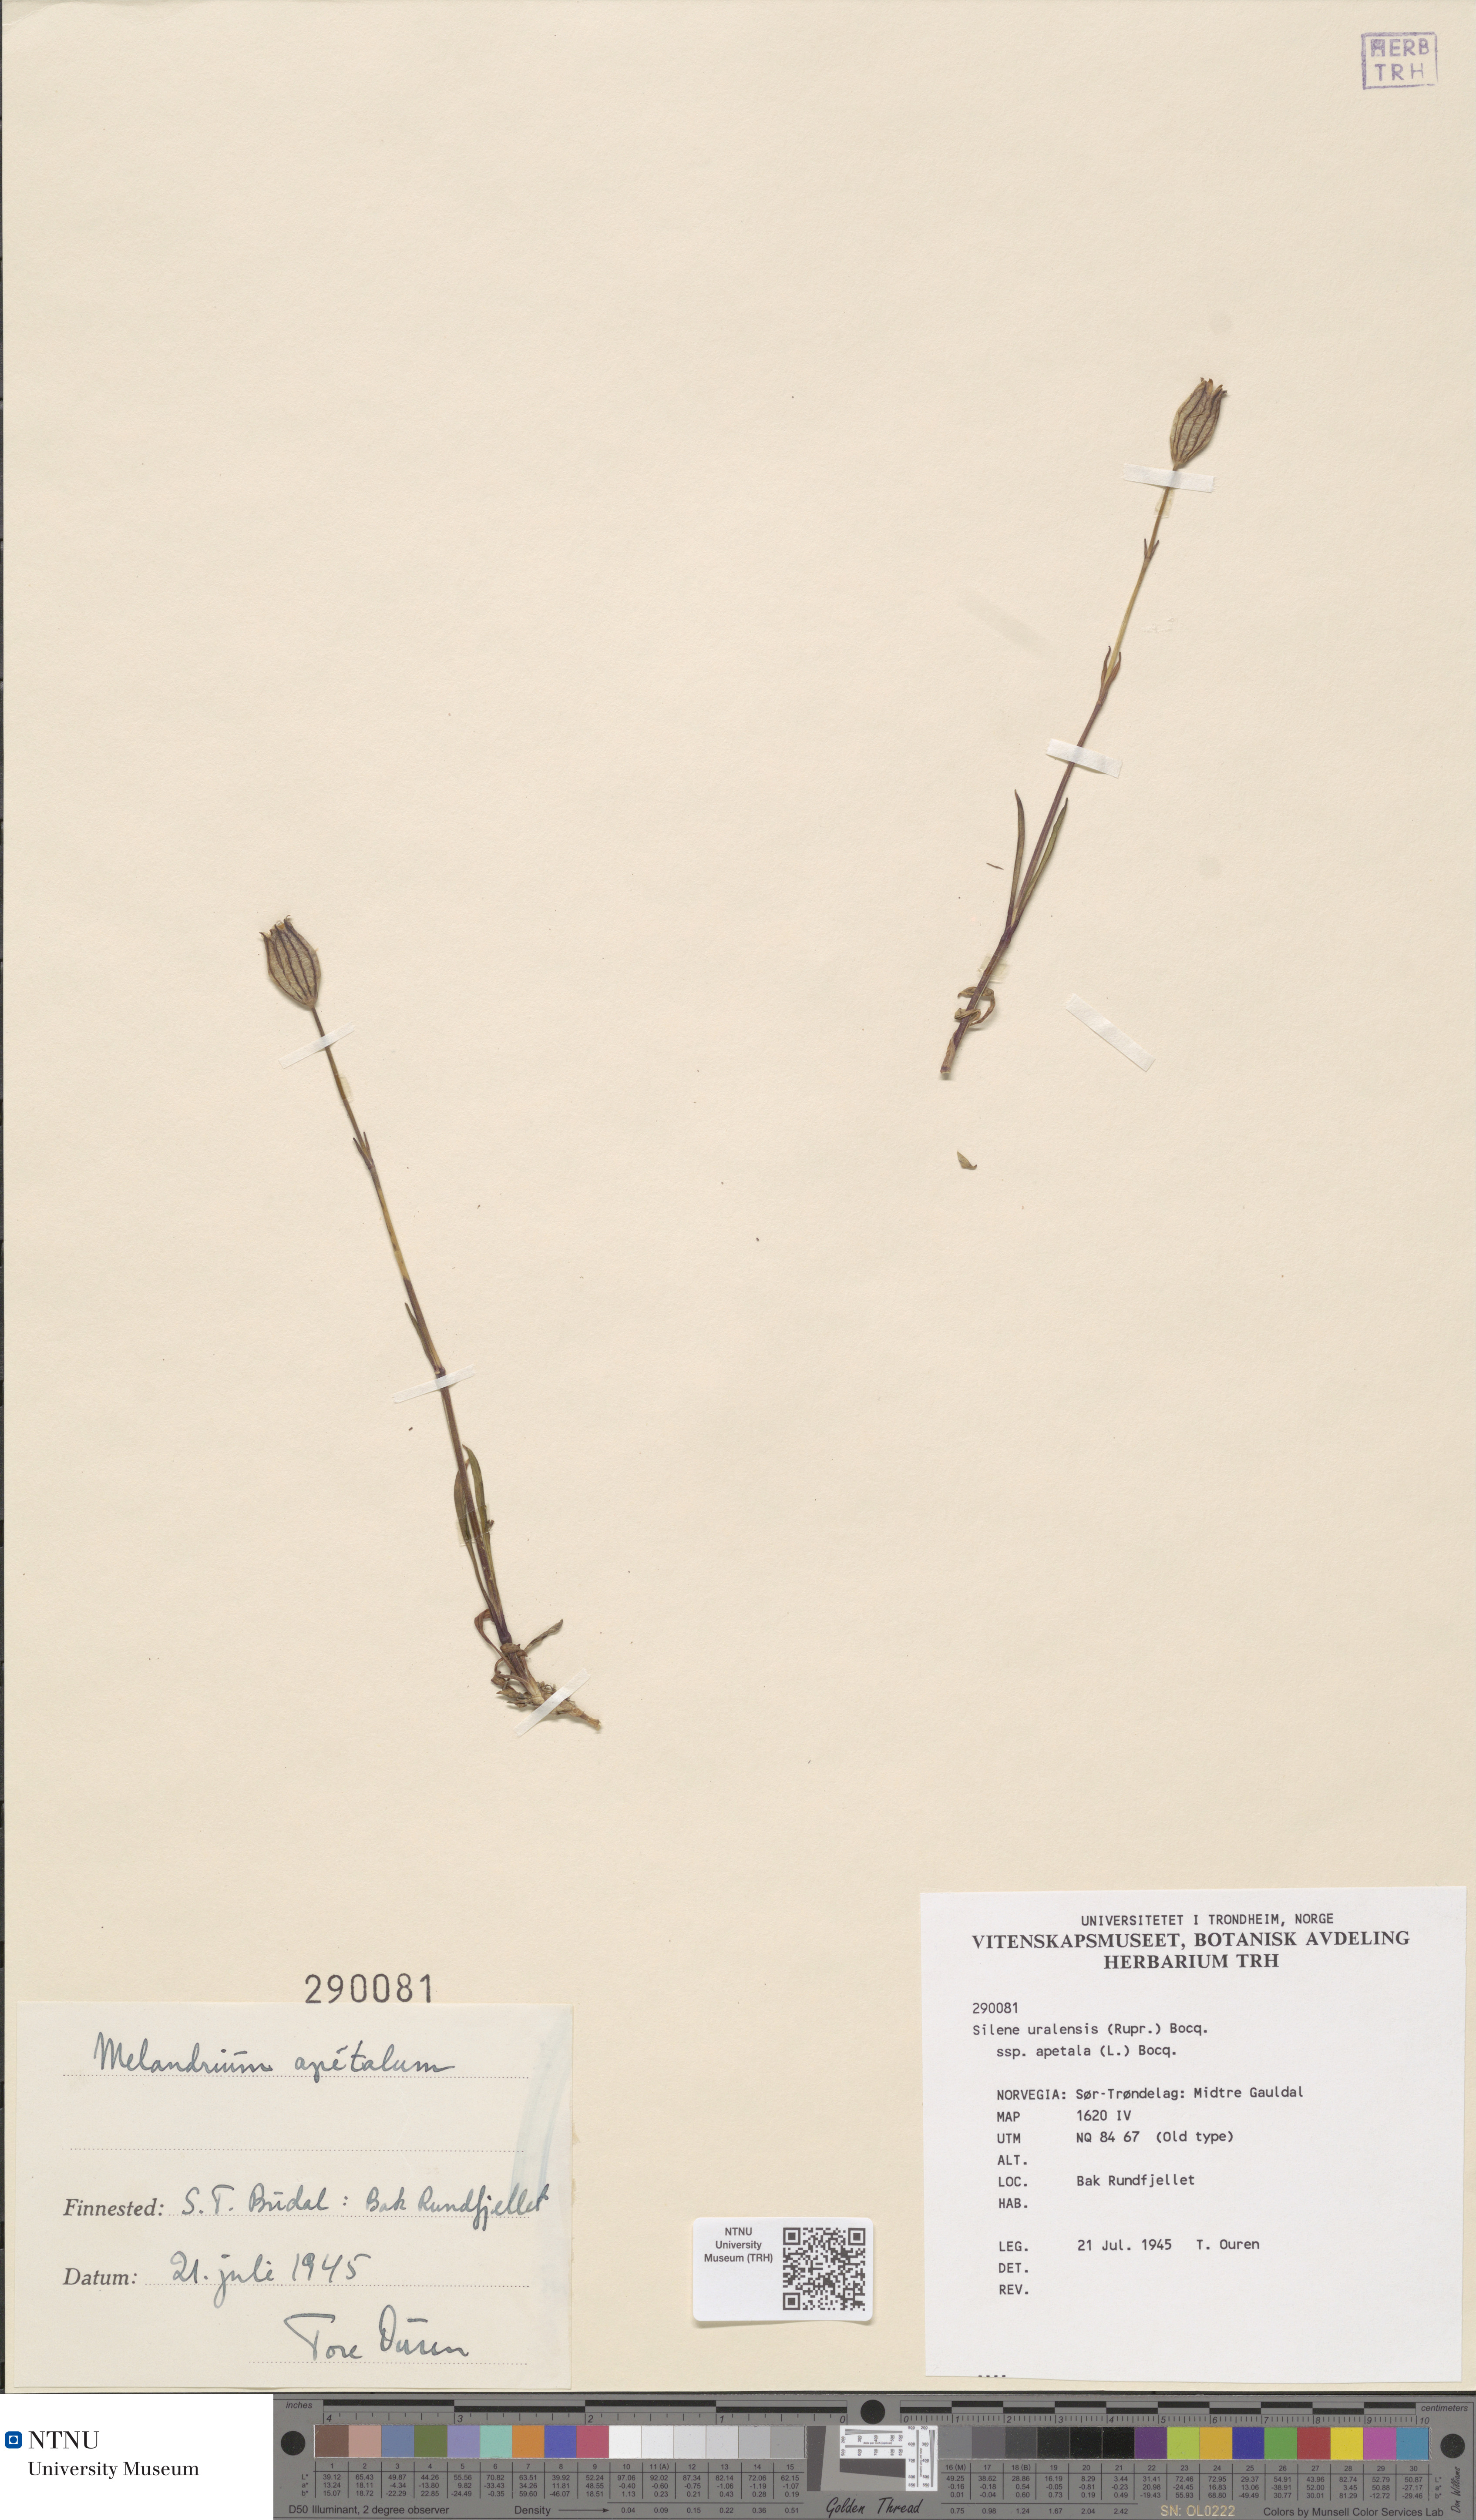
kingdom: Plantae
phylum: Tracheophyta
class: Magnoliopsida
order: Caryophyllales
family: Caryophyllaceae
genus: Silene
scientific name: Silene wahlbergella
